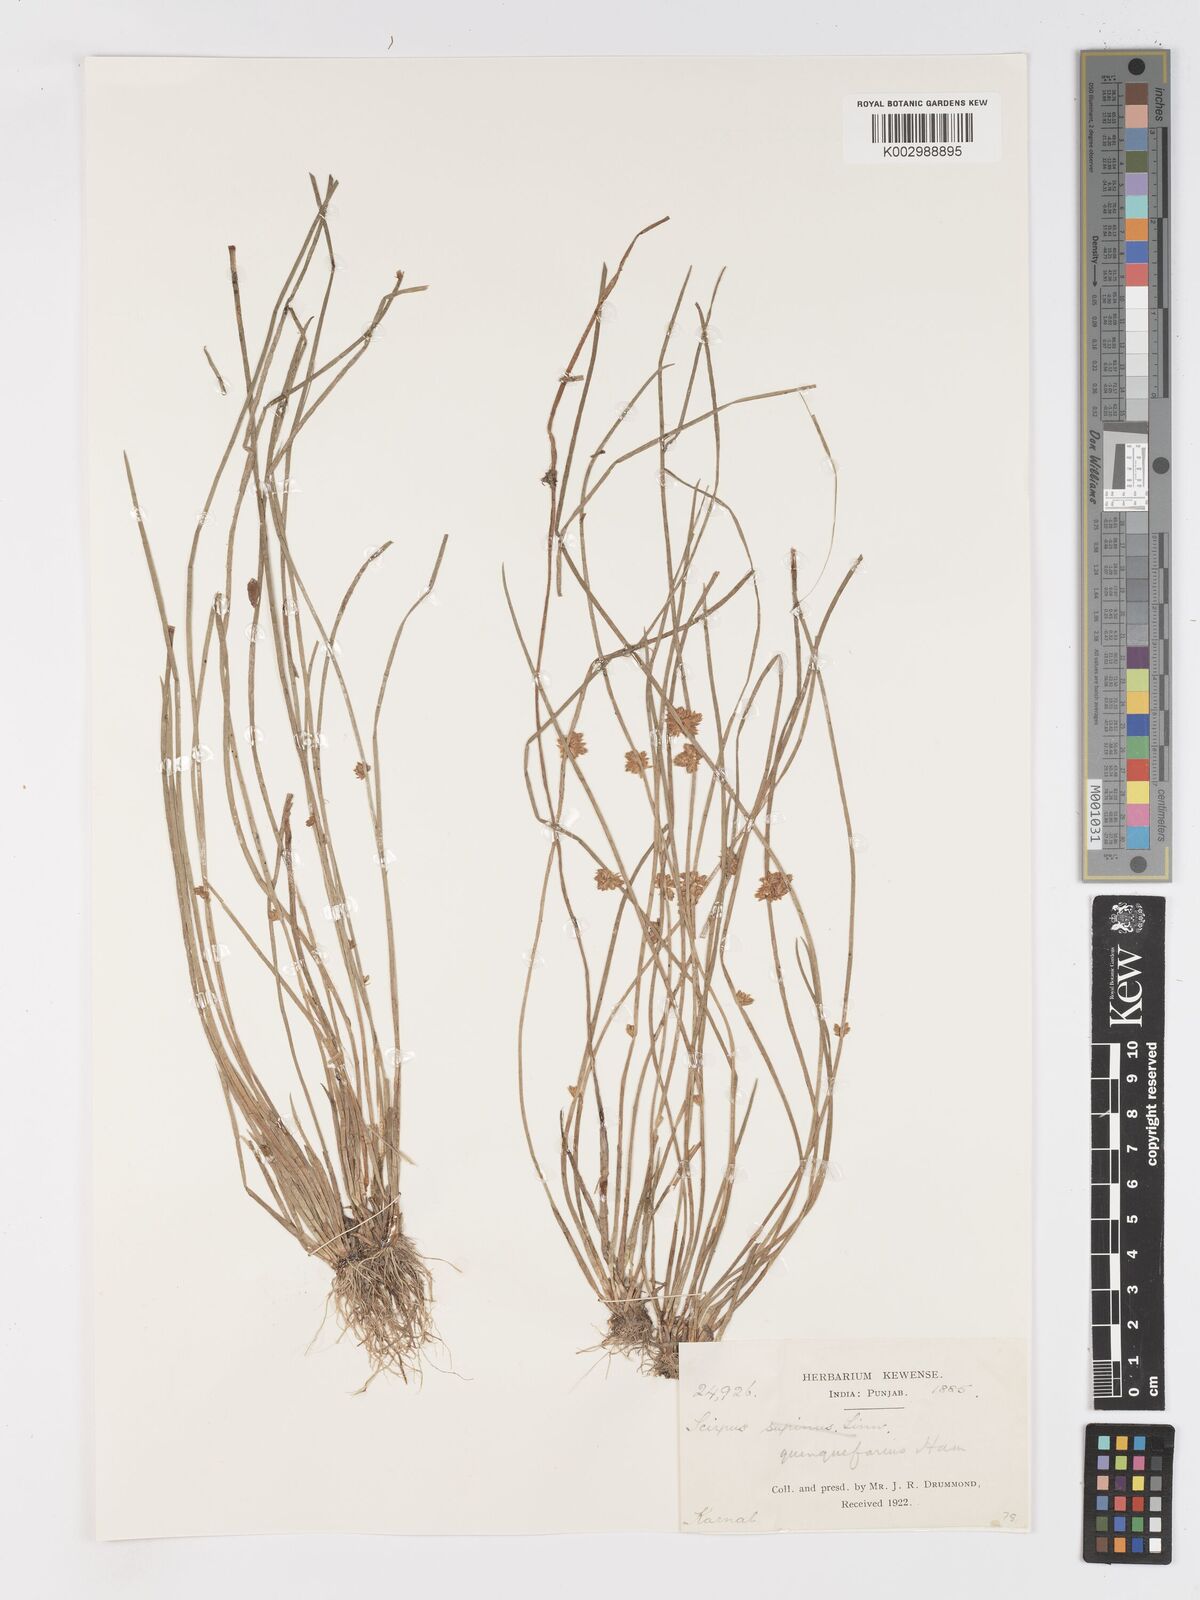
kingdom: Plantae
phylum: Tracheophyta
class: Liliopsida
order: Poales
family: Cyperaceae
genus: Schoenoplectiella
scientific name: Schoenoplectiella roylei
